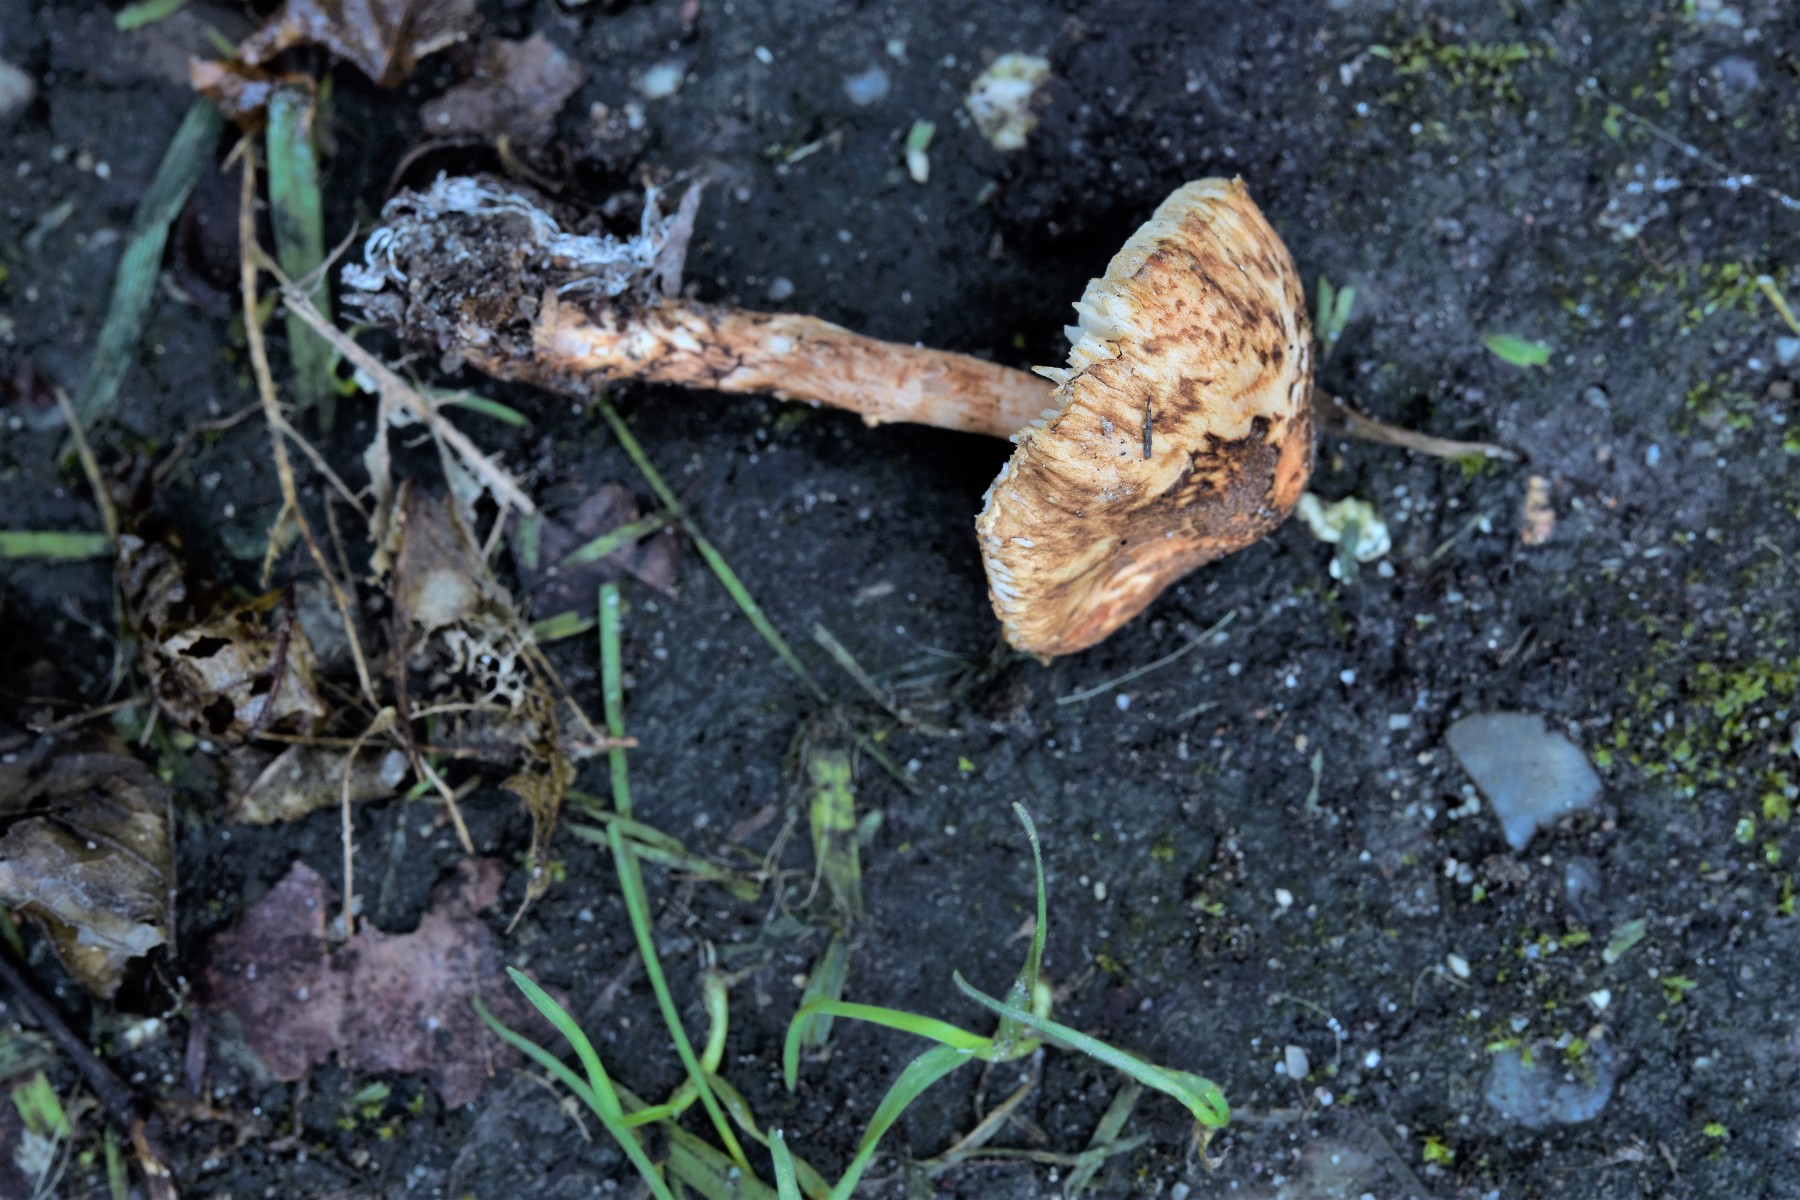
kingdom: Fungi
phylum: Basidiomycota
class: Agaricomycetes
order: Agaricales
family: Agaricaceae
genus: Lepiota
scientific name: Lepiota
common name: parasolhat
